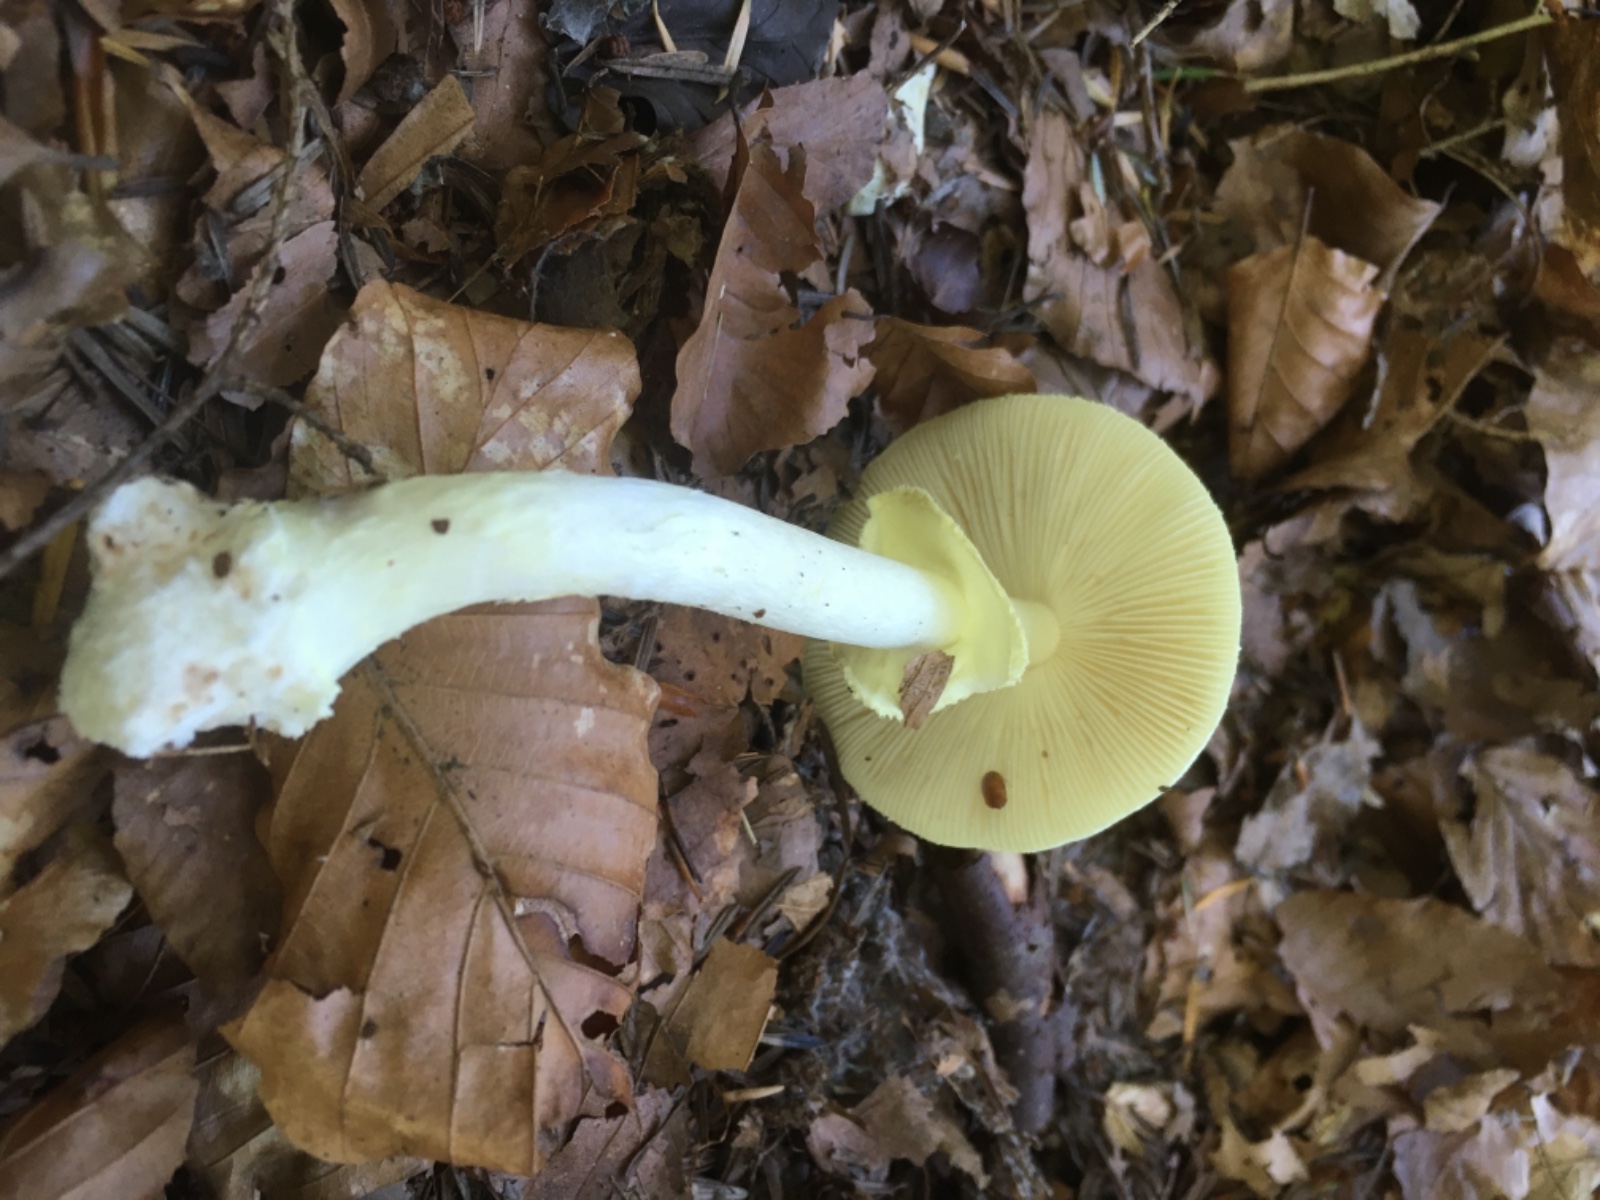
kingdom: Fungi
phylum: Basidiomycota
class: Agaricomycetes
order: Agaricales
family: Amanitaceae
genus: Amanita
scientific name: Amanita citrina
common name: kugleknoldet fluesvamp
